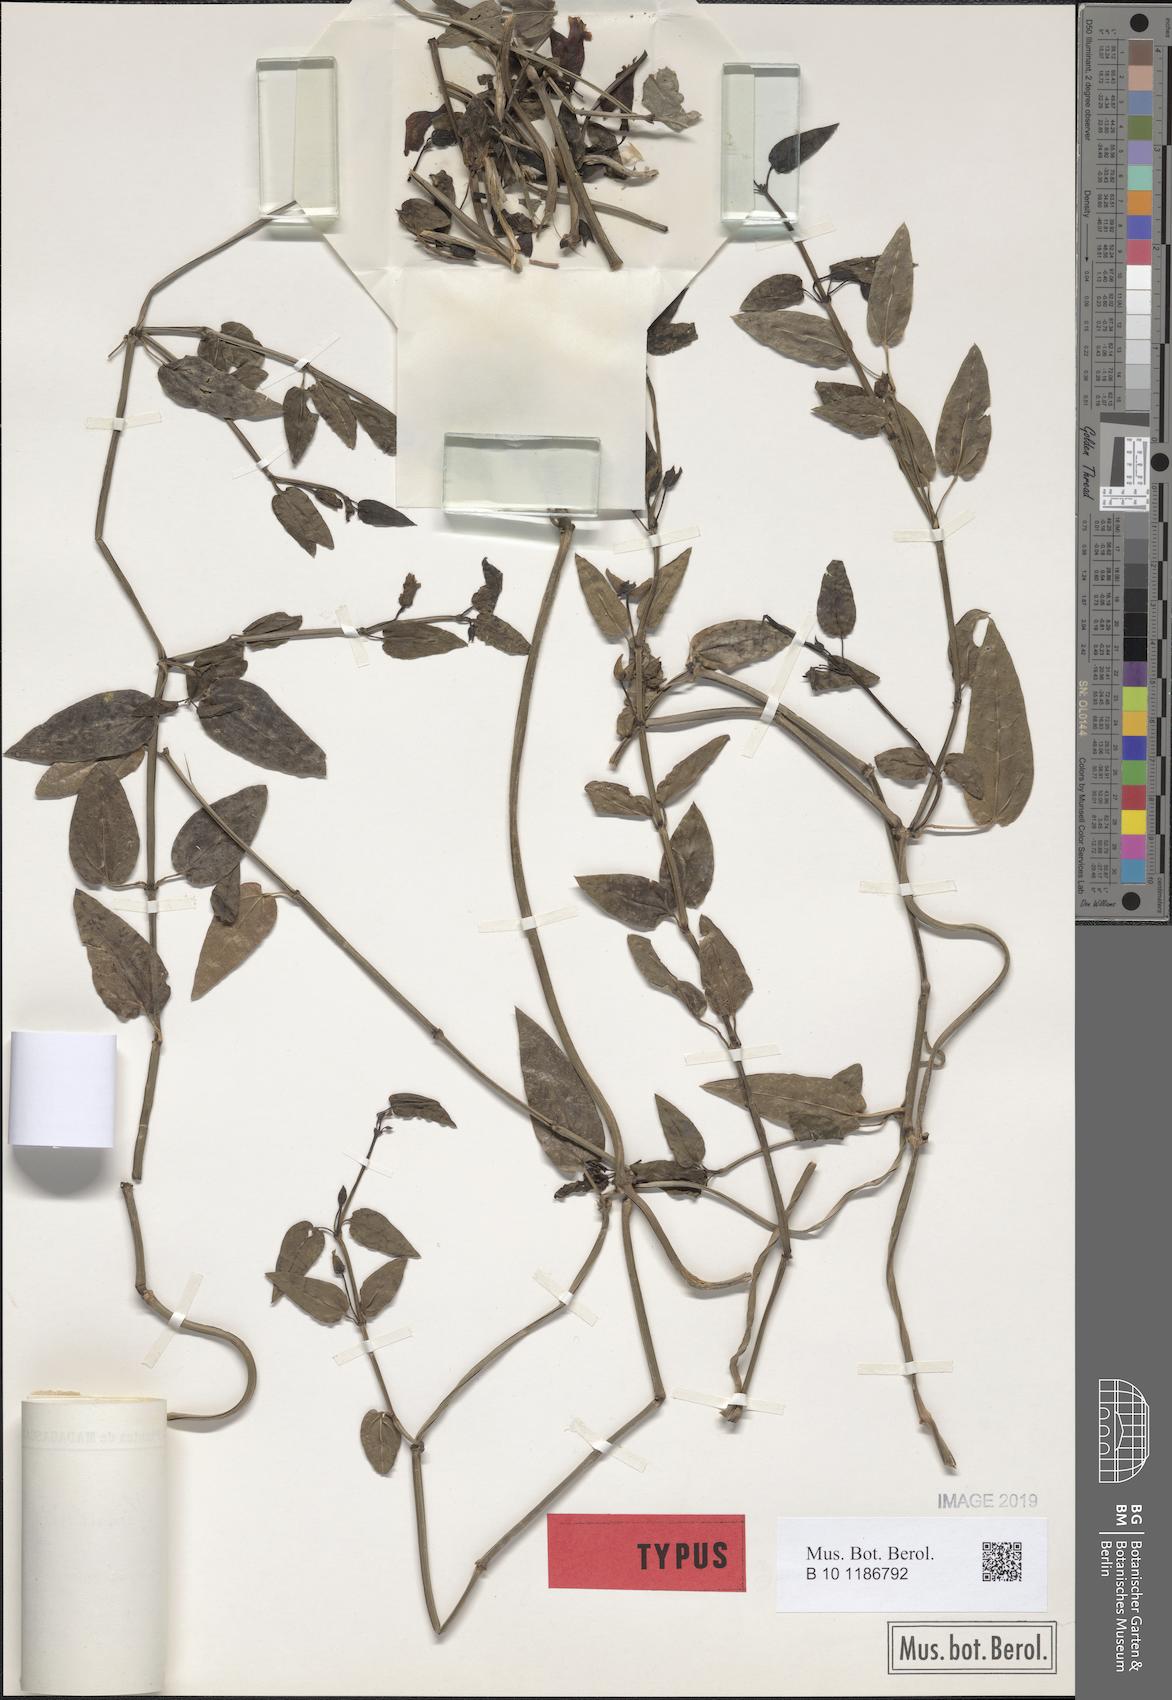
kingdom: Plantae
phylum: Tracheophyta
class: Magnoliopsida
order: Lamiales
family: Acanthaceae
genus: Thunbergia
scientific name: Thunbergia convolvulifolia
